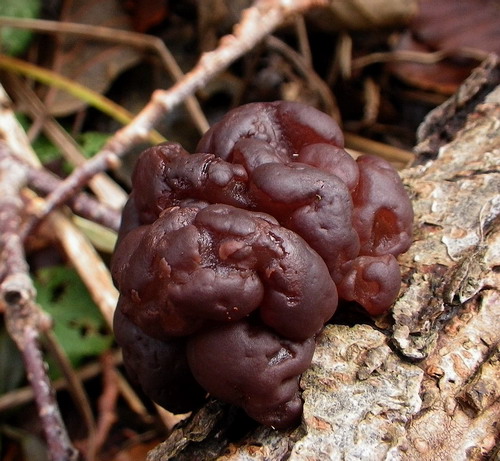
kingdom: Fungi
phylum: Ascomycota
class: Leotiomycetes
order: Helotiales
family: Gelatinodiscaceae
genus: Ascotremella
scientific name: Ascotremella faginea
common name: hjerne-bævreskive
